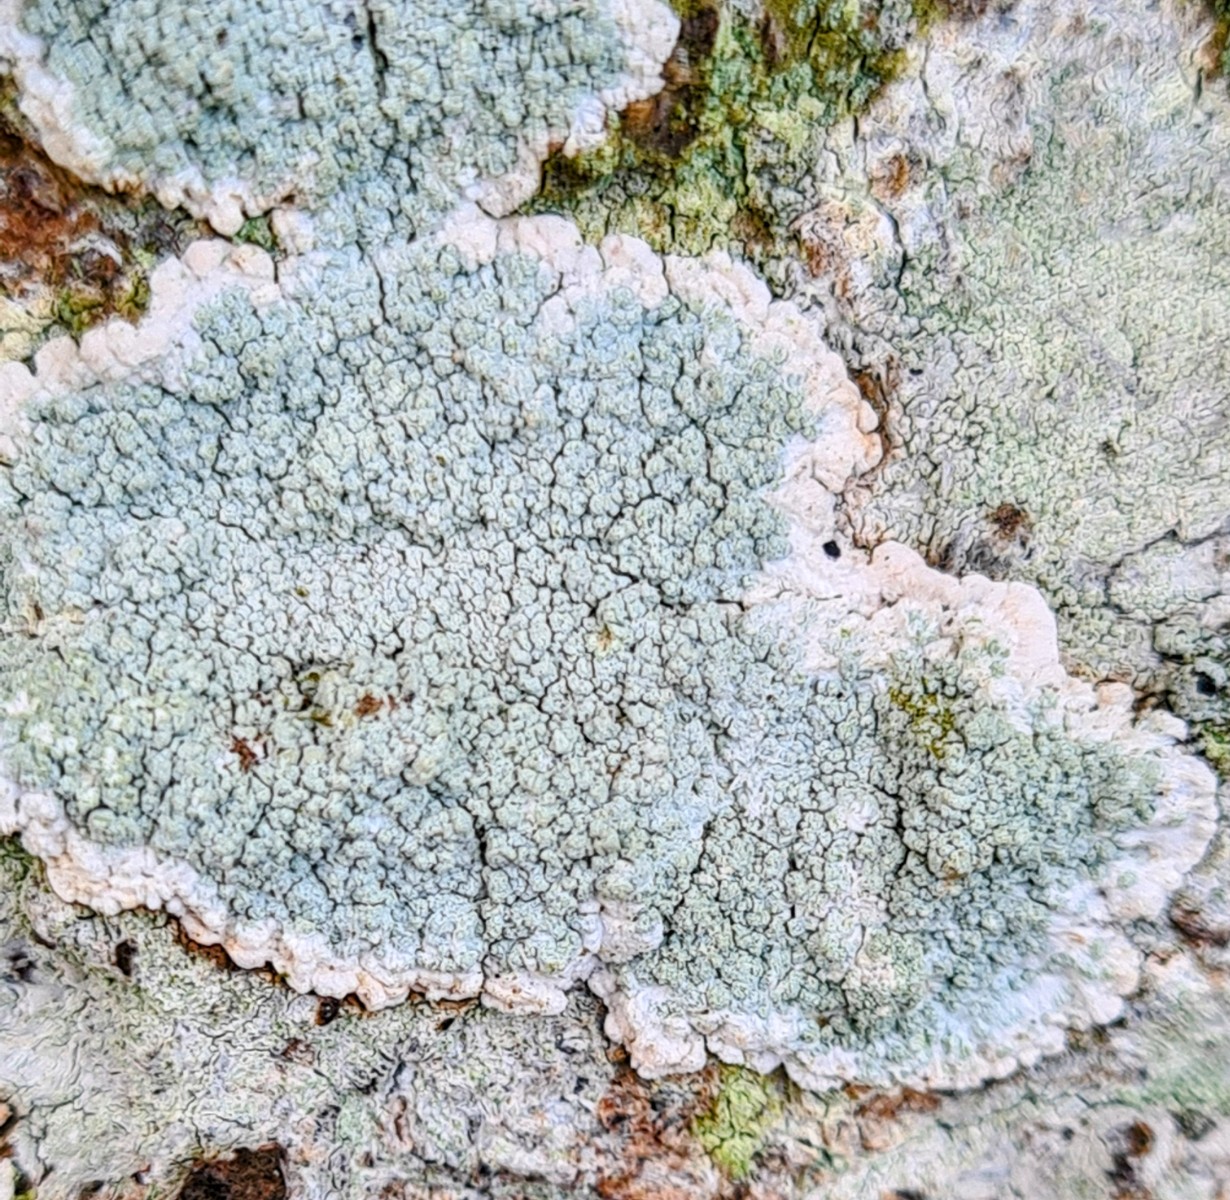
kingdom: Fungi
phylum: Ascomycota
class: Lecanoromycetes
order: Pertusariales
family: Pertusariaceae
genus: Pertusaria
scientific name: Pertusaria pertusa
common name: almindelig prikvortelav
